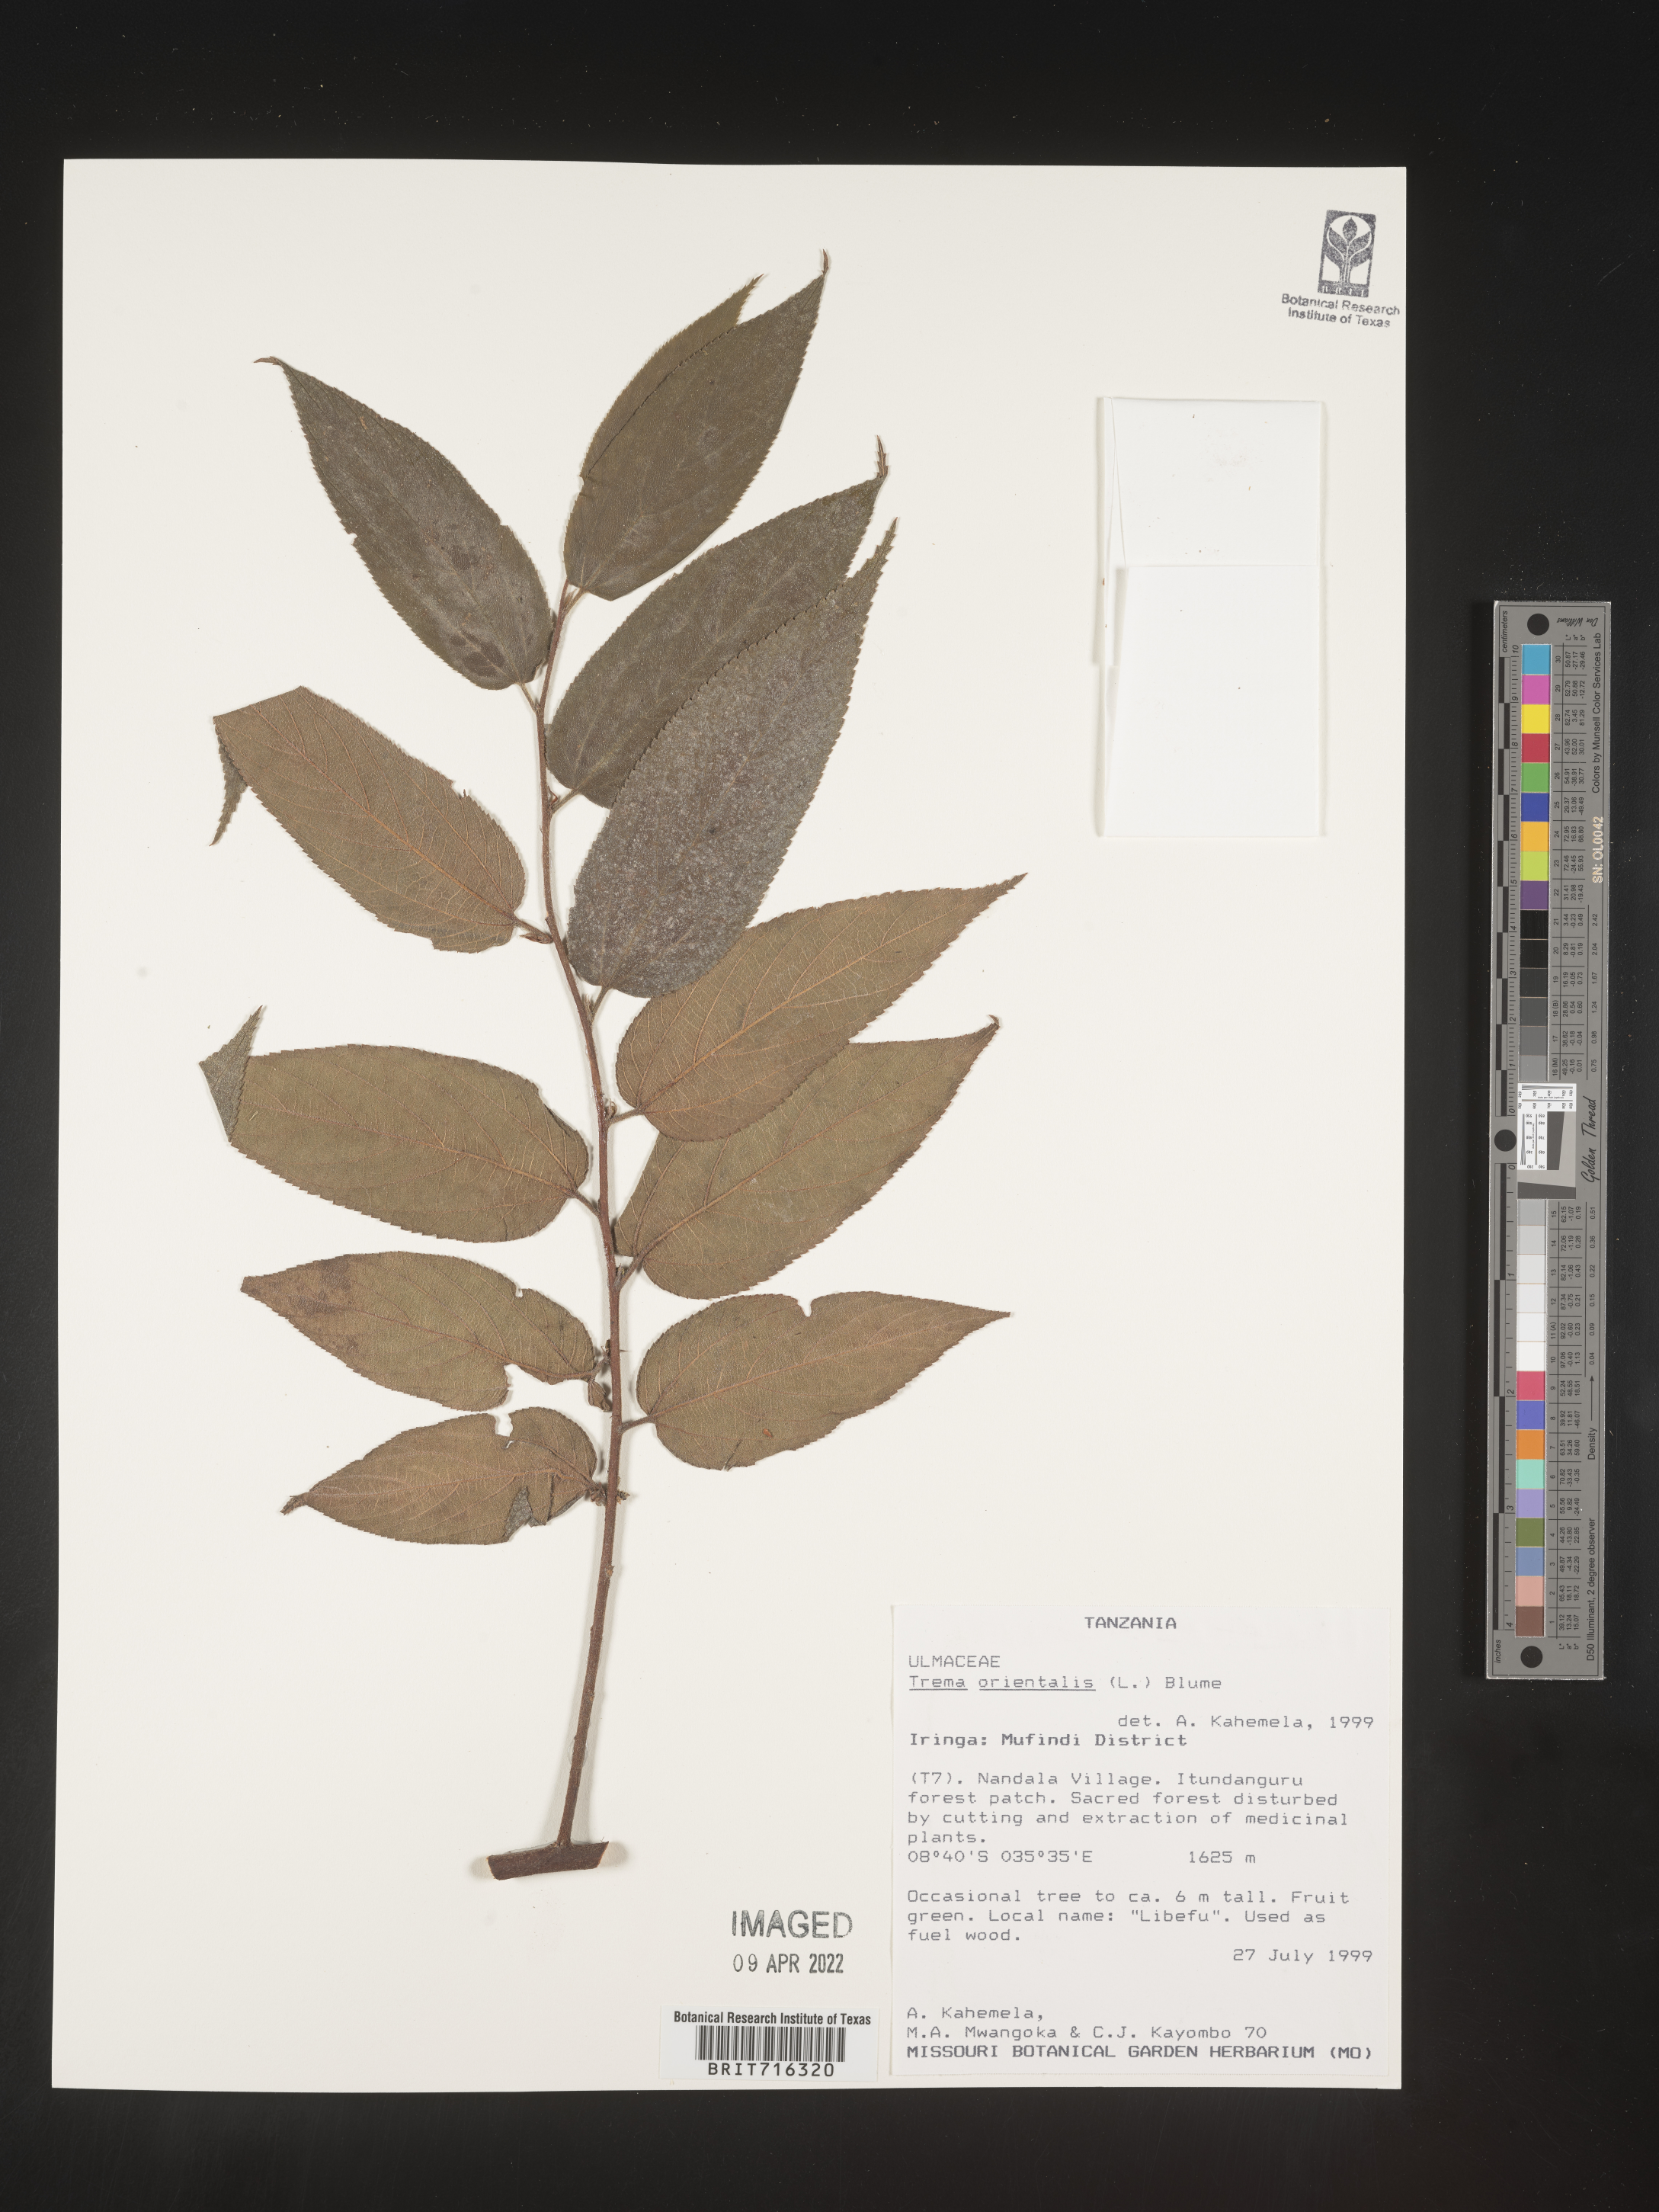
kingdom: Plantae
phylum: Tracheophyta
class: Magnoliopsida
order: Rosales
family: Cannabaceae
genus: Trema
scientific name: Trema
